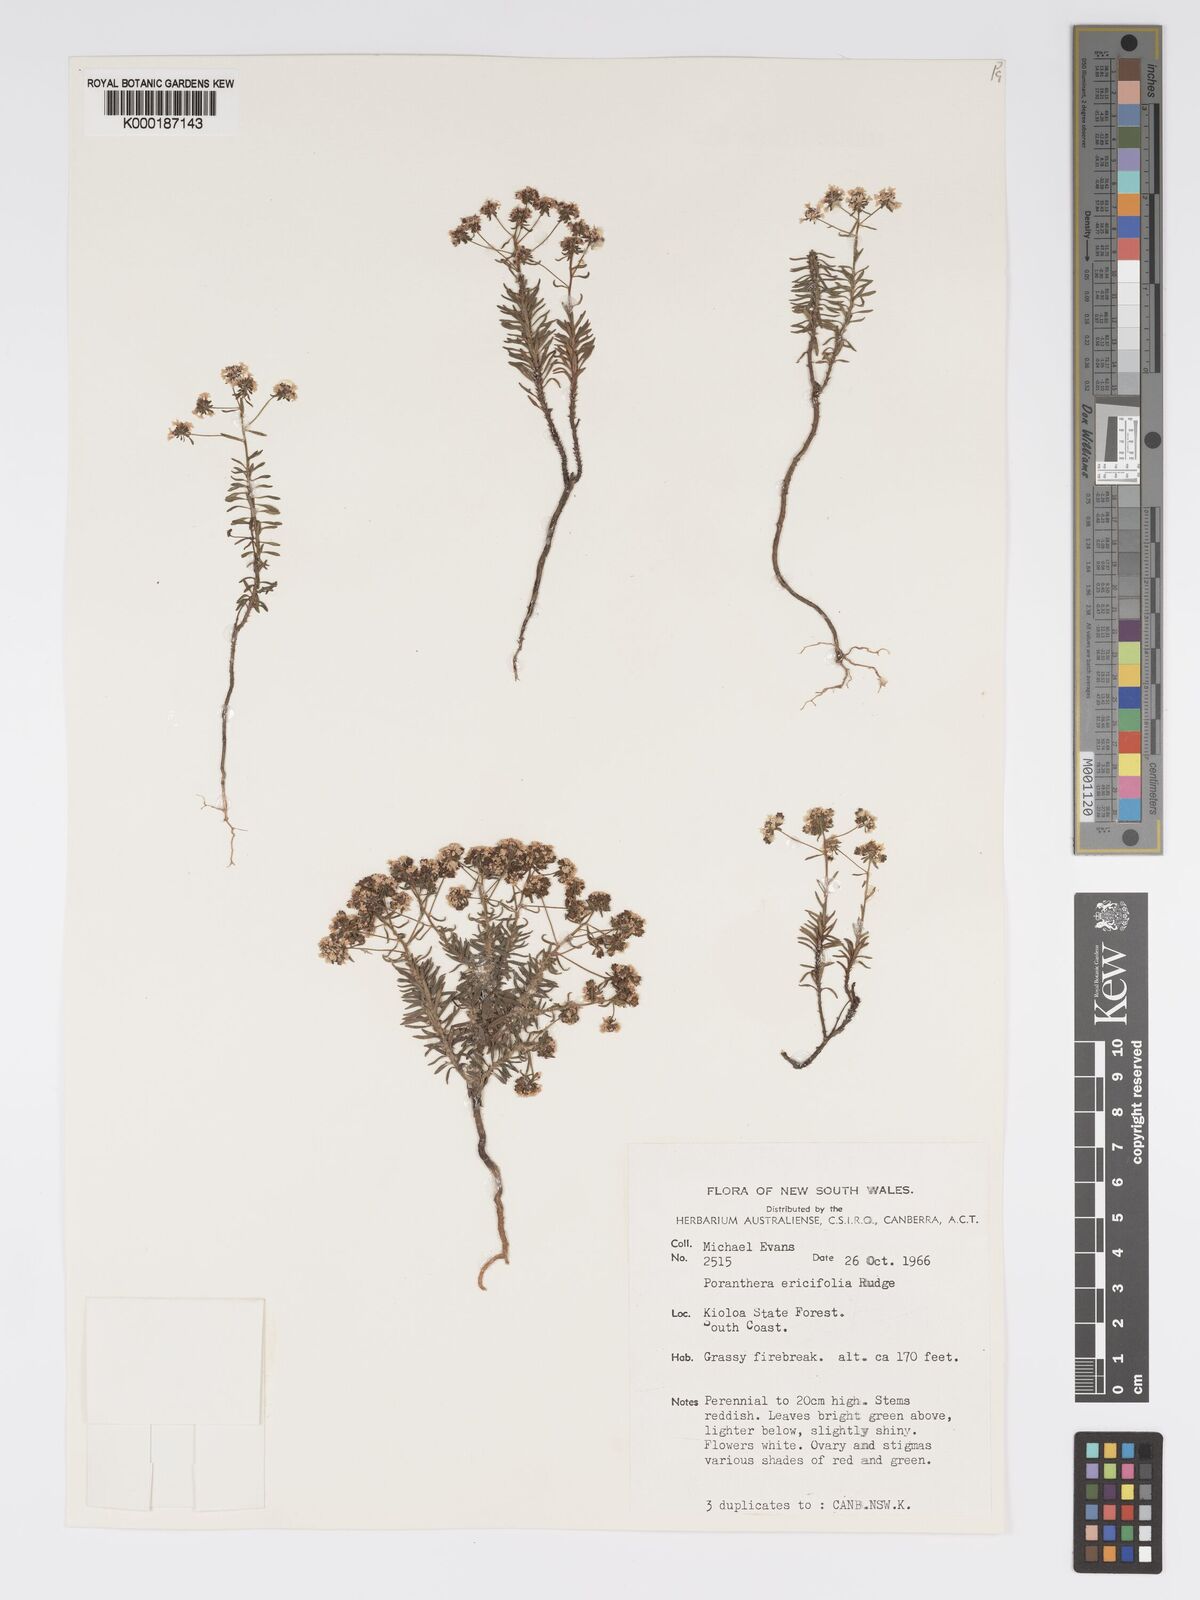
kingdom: Plantae
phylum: Tracheophyta
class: Magnoliopsida
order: Malpighiales
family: Phyllanthaceae
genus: Poranthera
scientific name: Poranthera ericifolia
